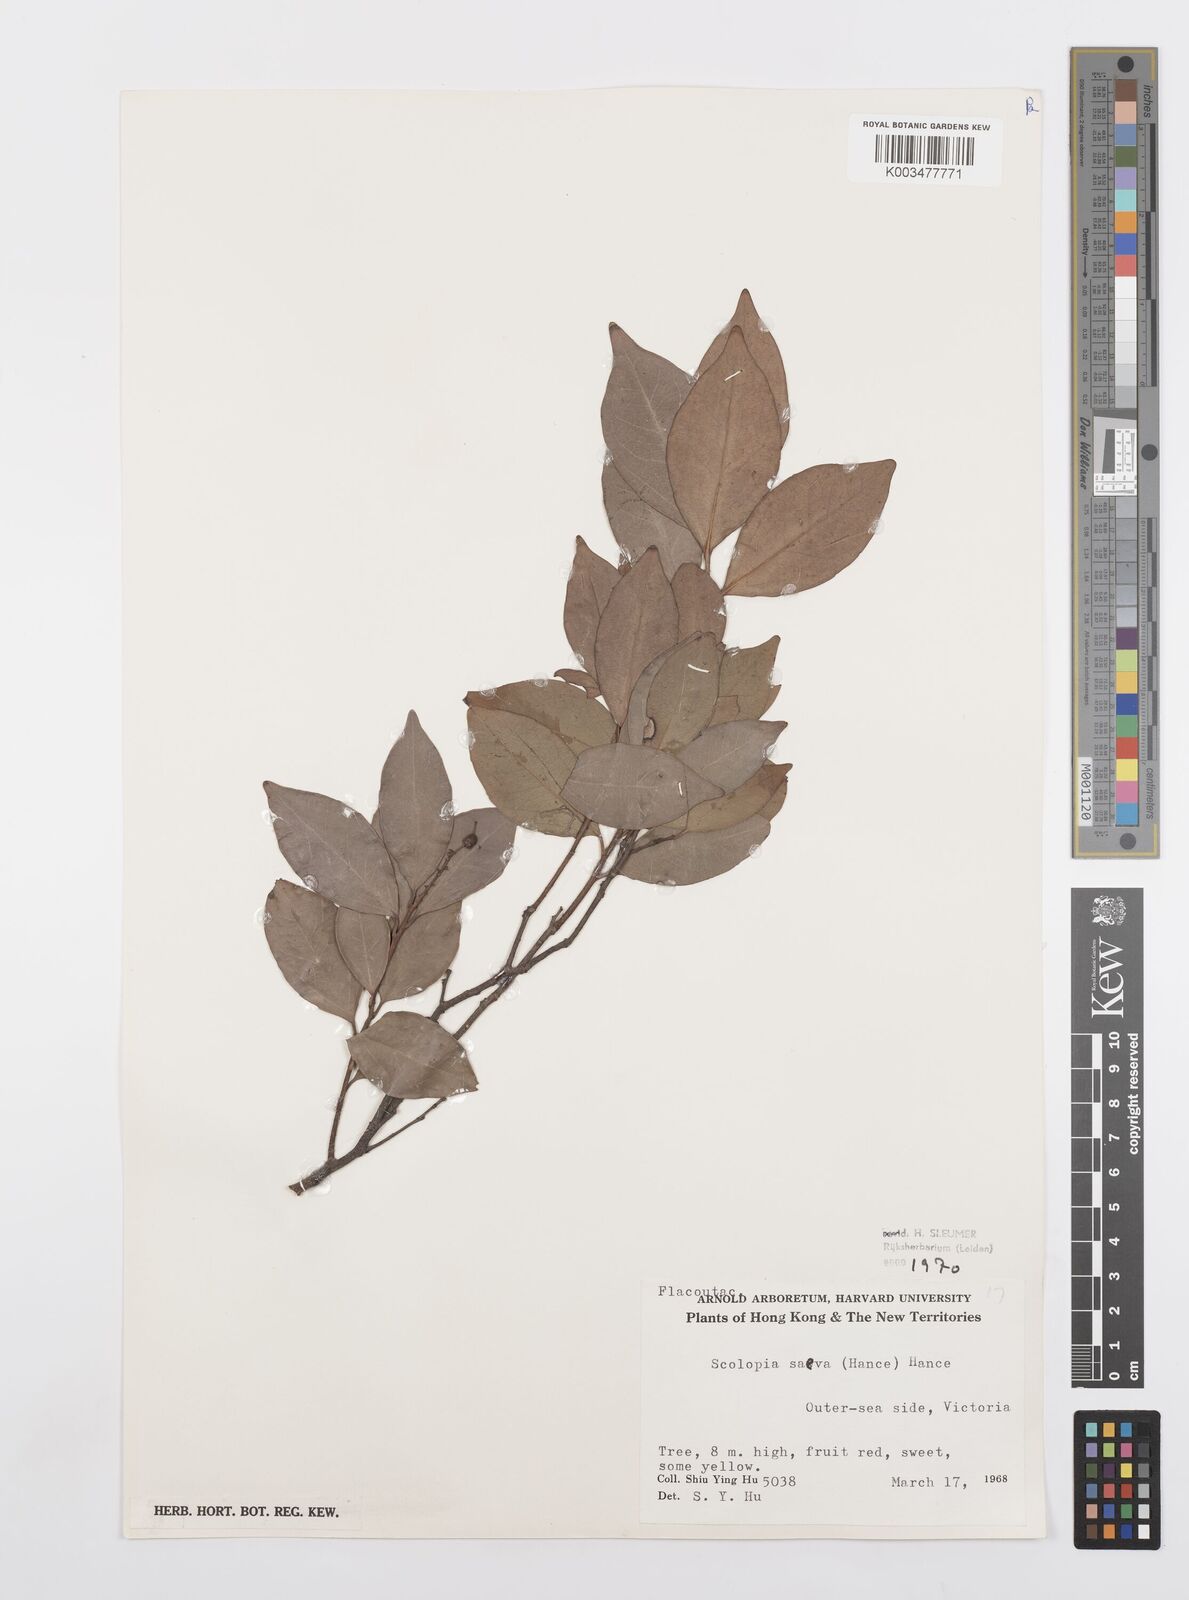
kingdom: Plantae
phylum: Tracheophyta
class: Magnoliopsida
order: Malpighiales
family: Salicaceae
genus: Scolopia
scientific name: Scolopia saeva
